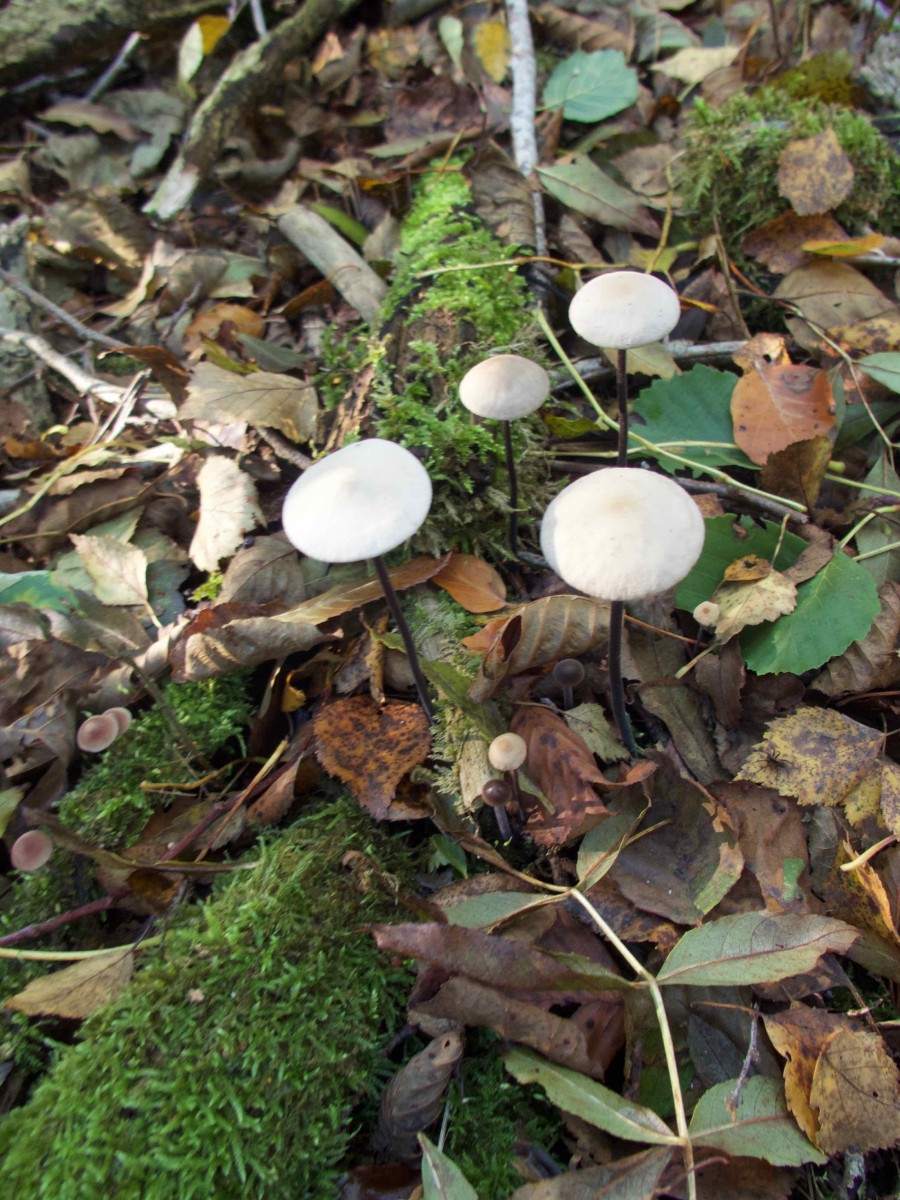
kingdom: Fungi
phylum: Basidiomycota
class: Agaricomycetes
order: Agaricales
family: Omphalotaceae
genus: Mycetinis
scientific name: Mycetinis alliaceus
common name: stor løghat
